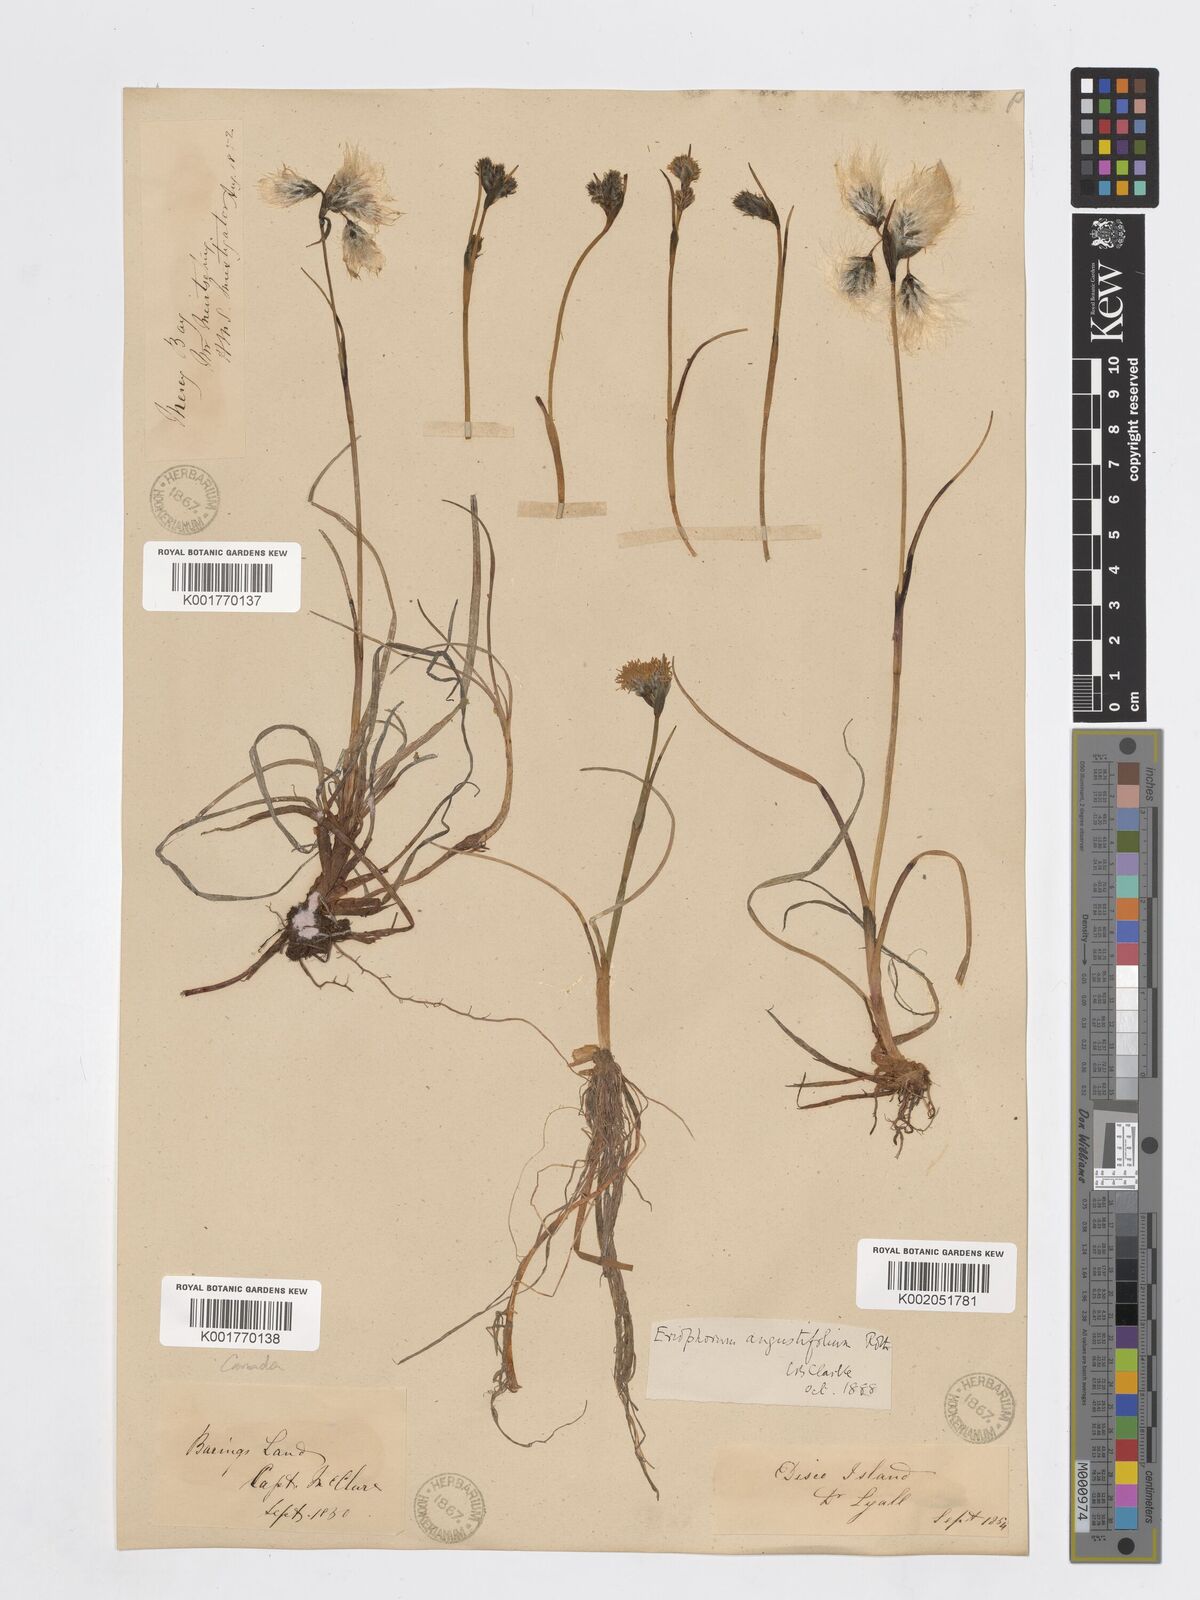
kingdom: Plantae
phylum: Tracheophyta
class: Liliopsida
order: Poales
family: Cyperaceae
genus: Eriophorum
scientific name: Eriophorum angustifolium
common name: Common cottongrass
